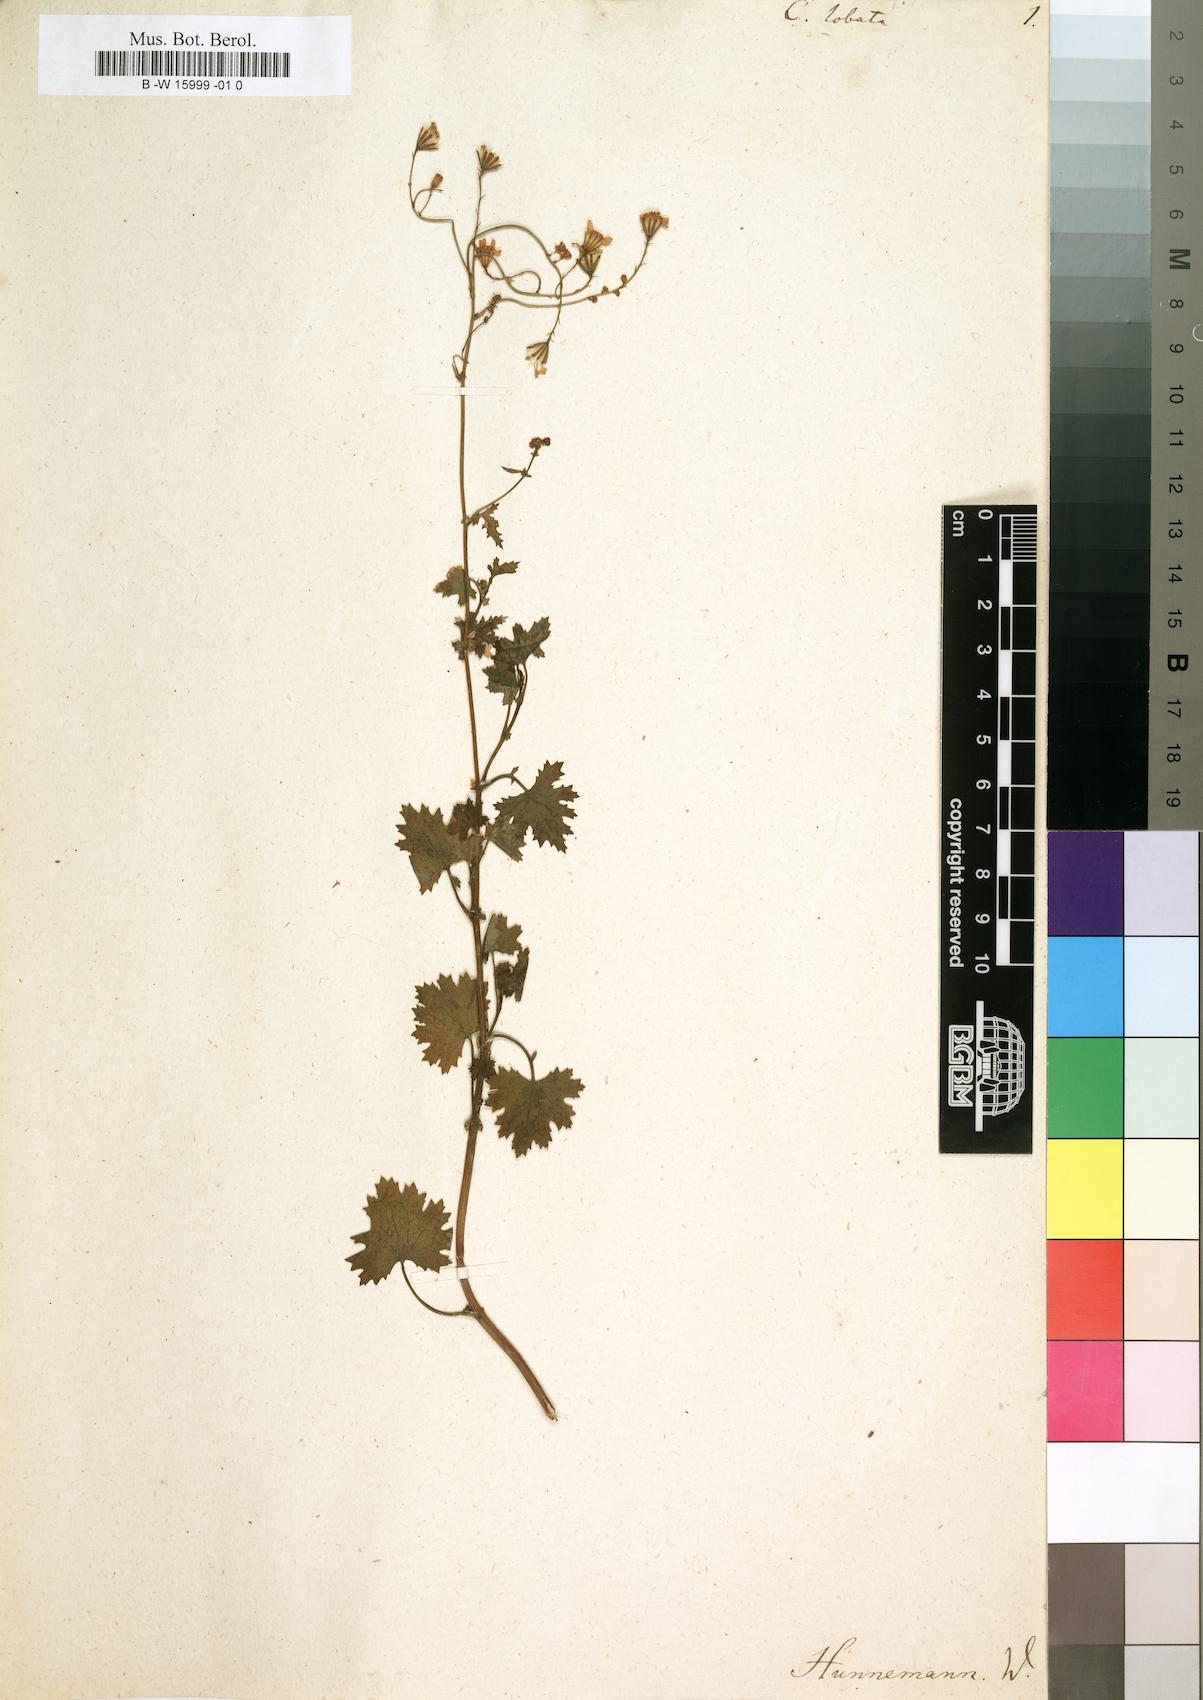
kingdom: Plantae
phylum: Tracheophyta
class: Magnoliopsida
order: Asterales
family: Asteraceae
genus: Cineraria
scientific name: Cineraria lobata
